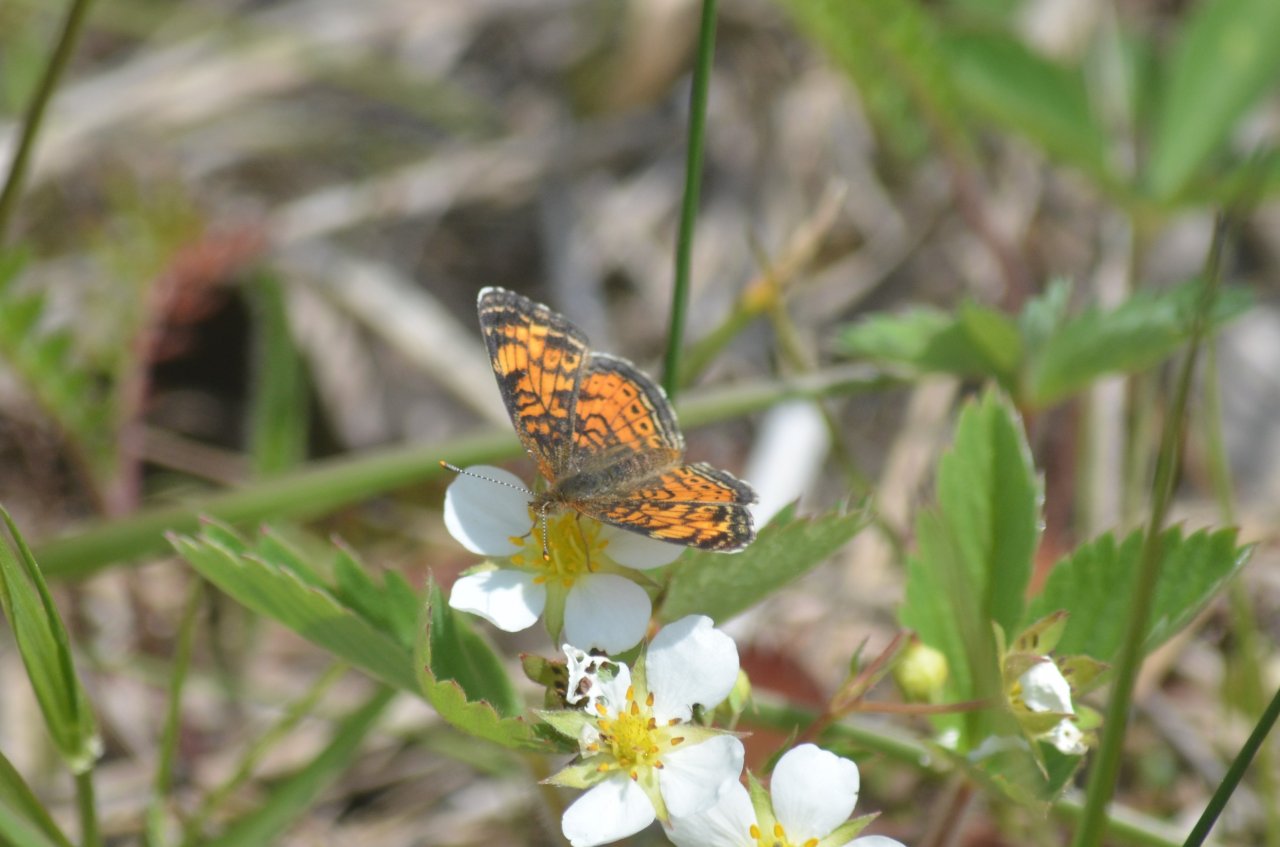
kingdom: Animalia
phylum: Arthropoda
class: Insecta
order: Lepidoptera
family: Nymphalidae
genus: Phyciodes
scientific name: Phyciodes tharos
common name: Pearl Crescent
